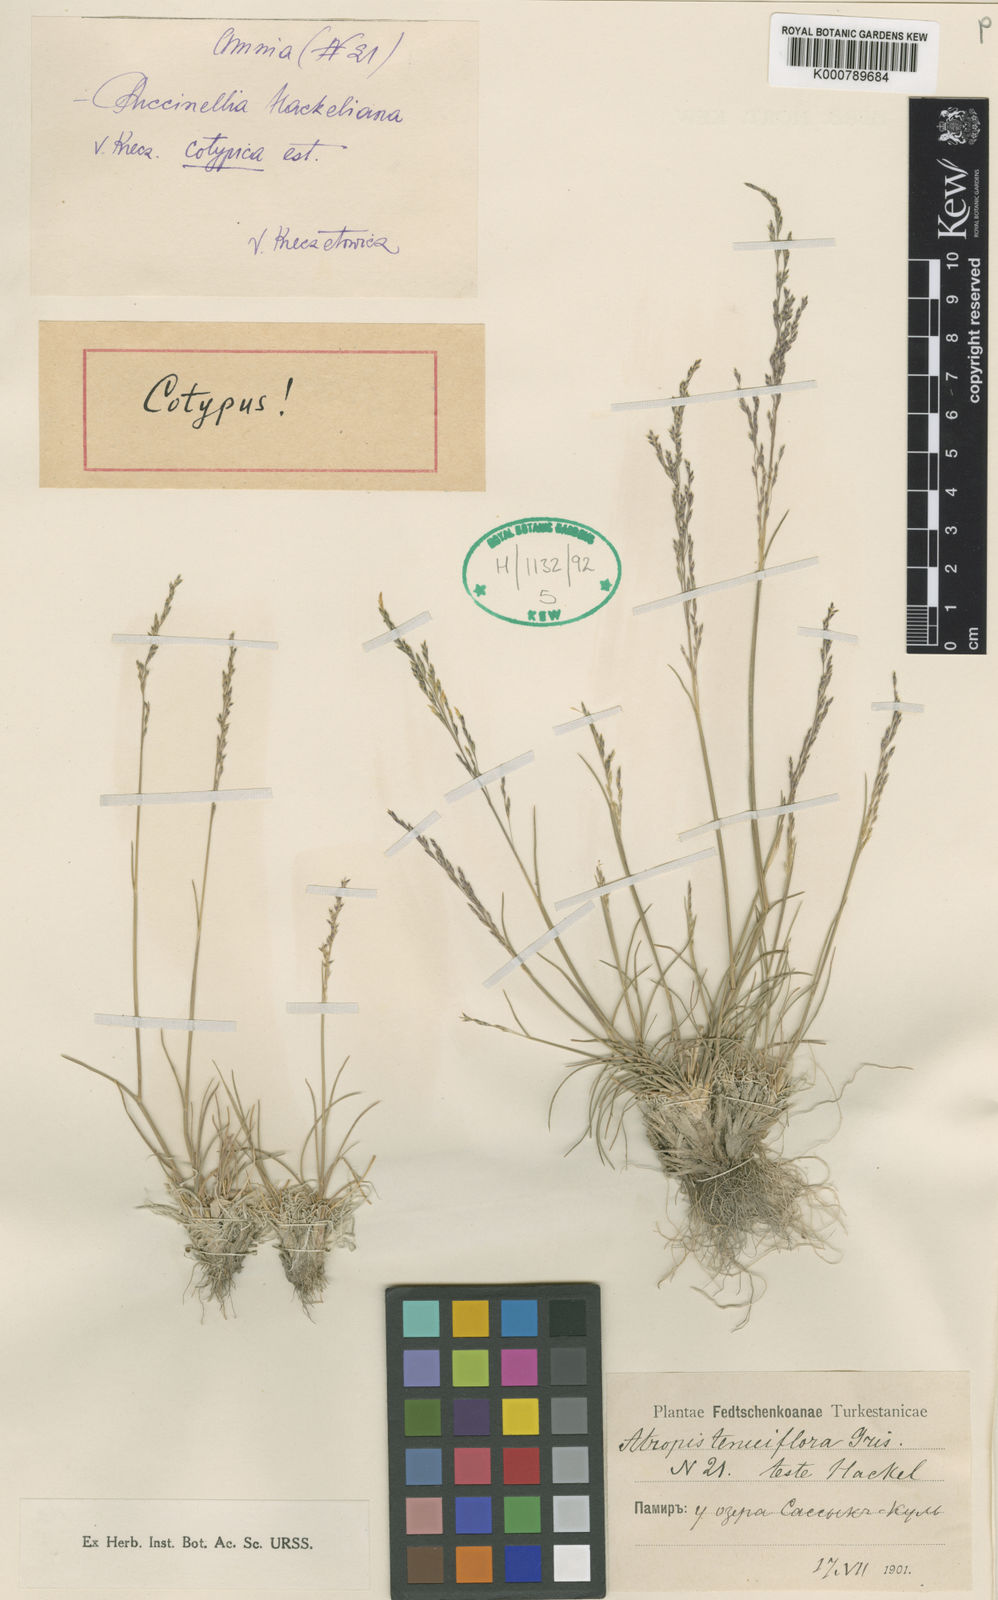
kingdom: Plantae
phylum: Tracheophyta
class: Liliopsida
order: Poales
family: Poaceae
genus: Puccinellia
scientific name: Puccinellia hackeliana
